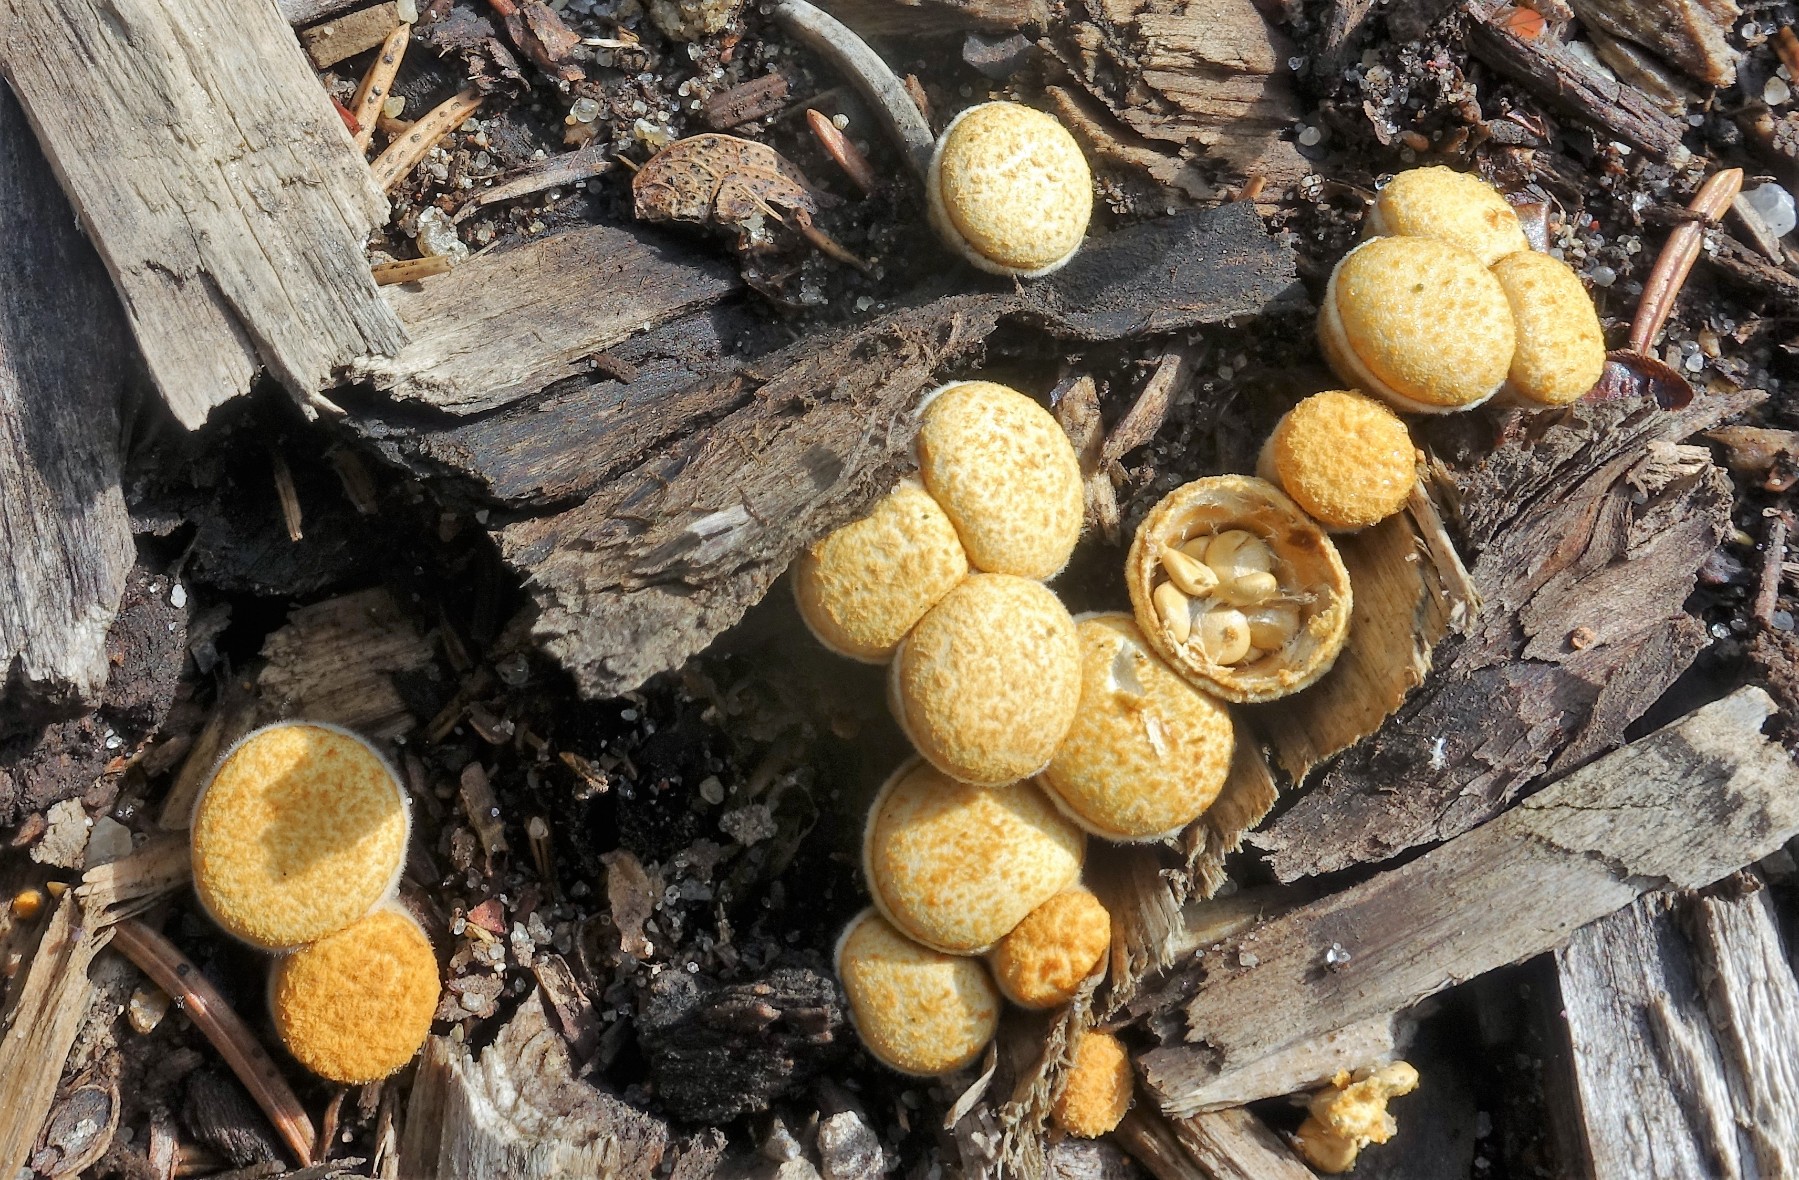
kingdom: Fungi
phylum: Basidiomycota
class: Agaricomycetes
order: Agaricales
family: Nidulariaceae
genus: Crucibulum
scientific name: Crucibulum crucibuliforme
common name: krukkesvamp
